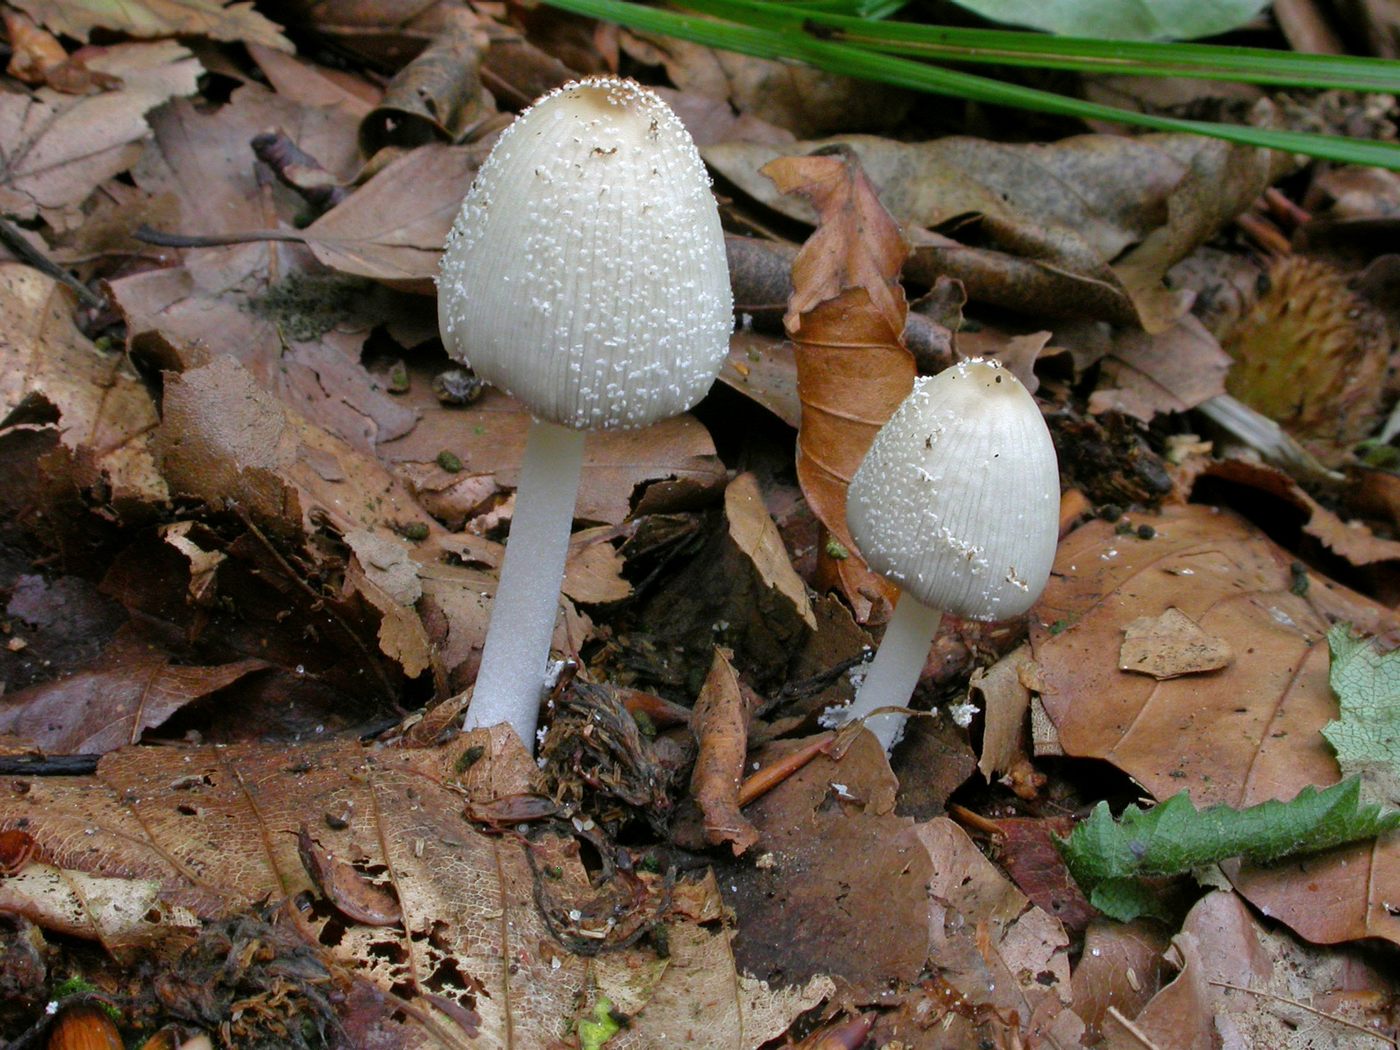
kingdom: Fungi
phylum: Basidiomycota
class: Agaricomycetes
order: Agaricales
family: Psathyrellaceae
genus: Coprinellus
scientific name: Coprinellus xanthothrix
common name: gultrådet blækhat
